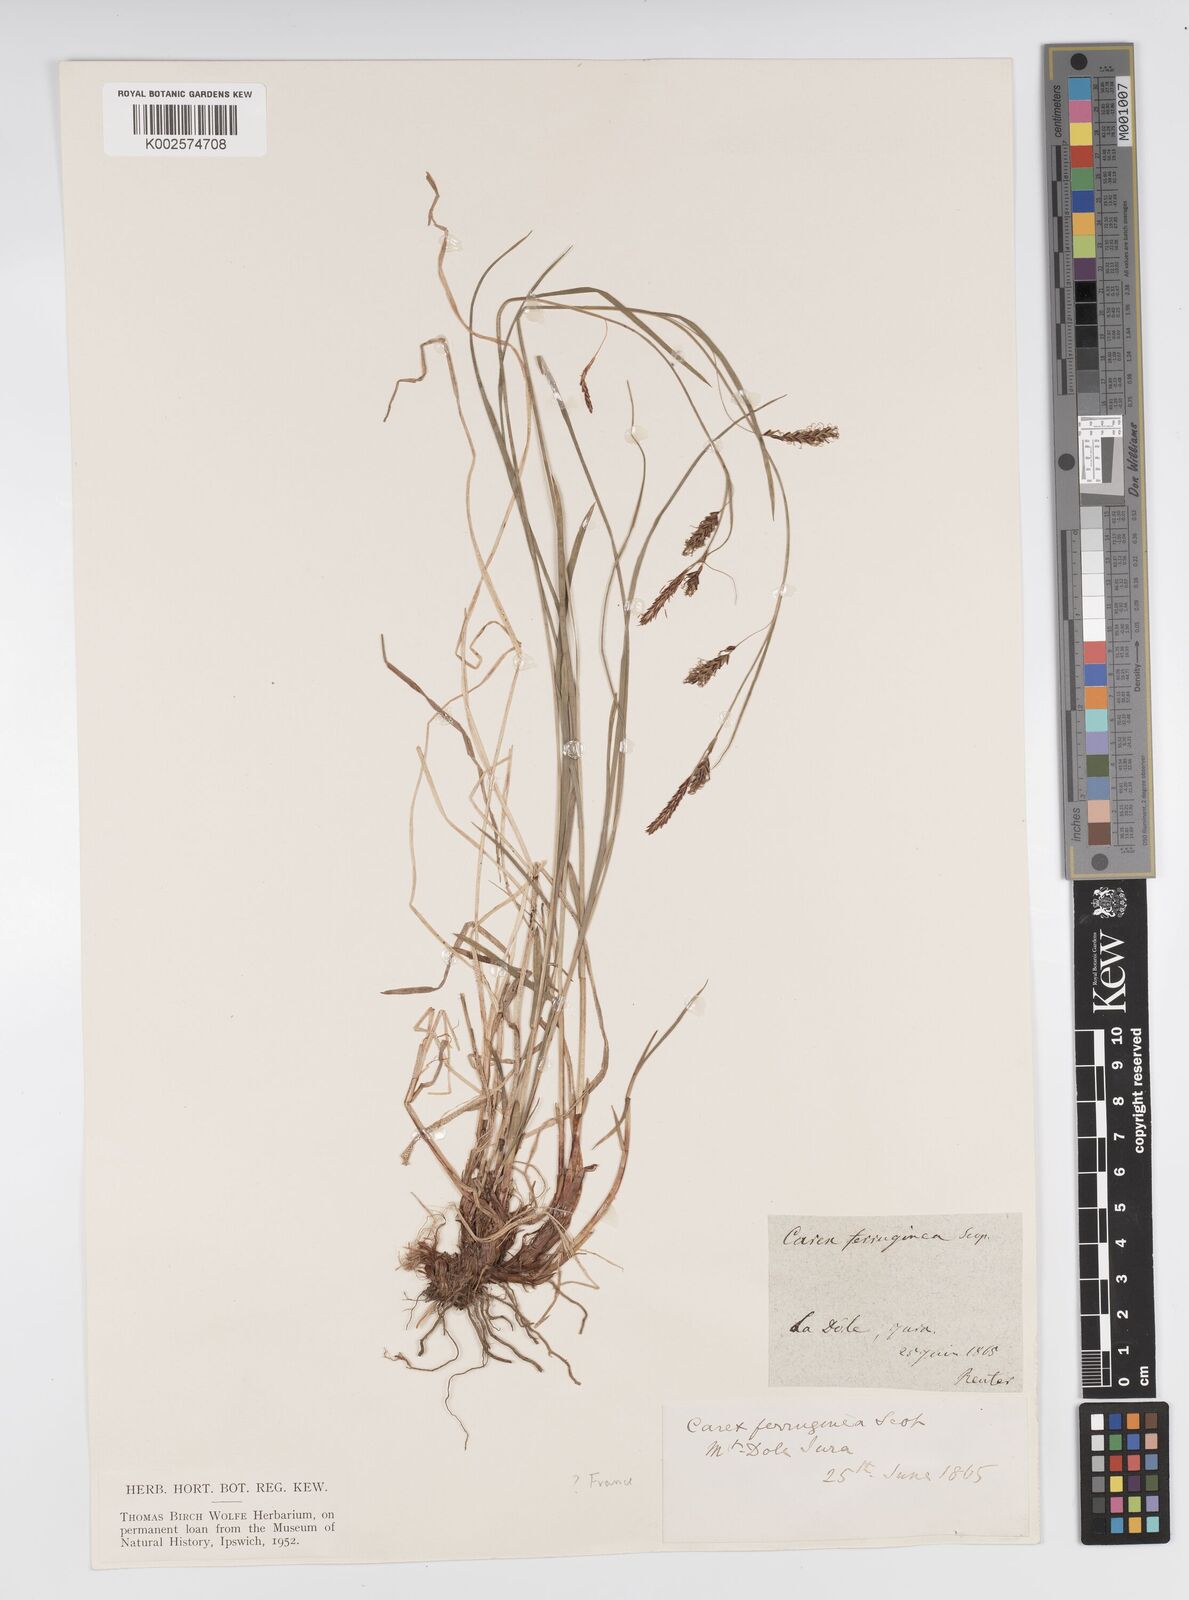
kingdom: Plantae
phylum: Tracheophyta
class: Liliopsida
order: Poales
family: Cyperaceae
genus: Carex
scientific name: Carex ferruginea
